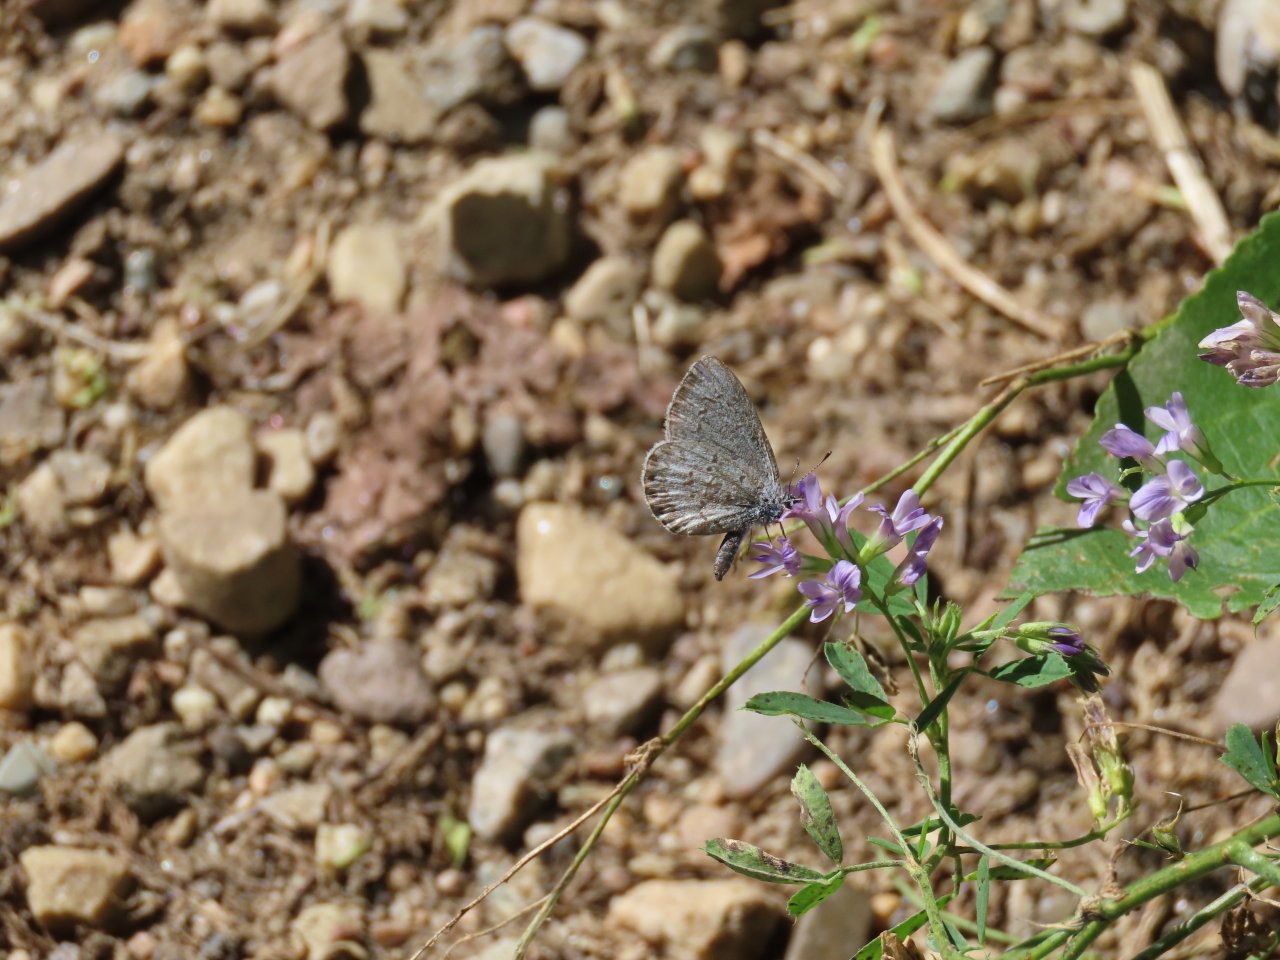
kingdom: Animalia
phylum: Arthropoda
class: Insecta
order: Lepidoptera
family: Lycaenidae
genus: Celastrina
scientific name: Celastrina ladon
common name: Spring Azure
